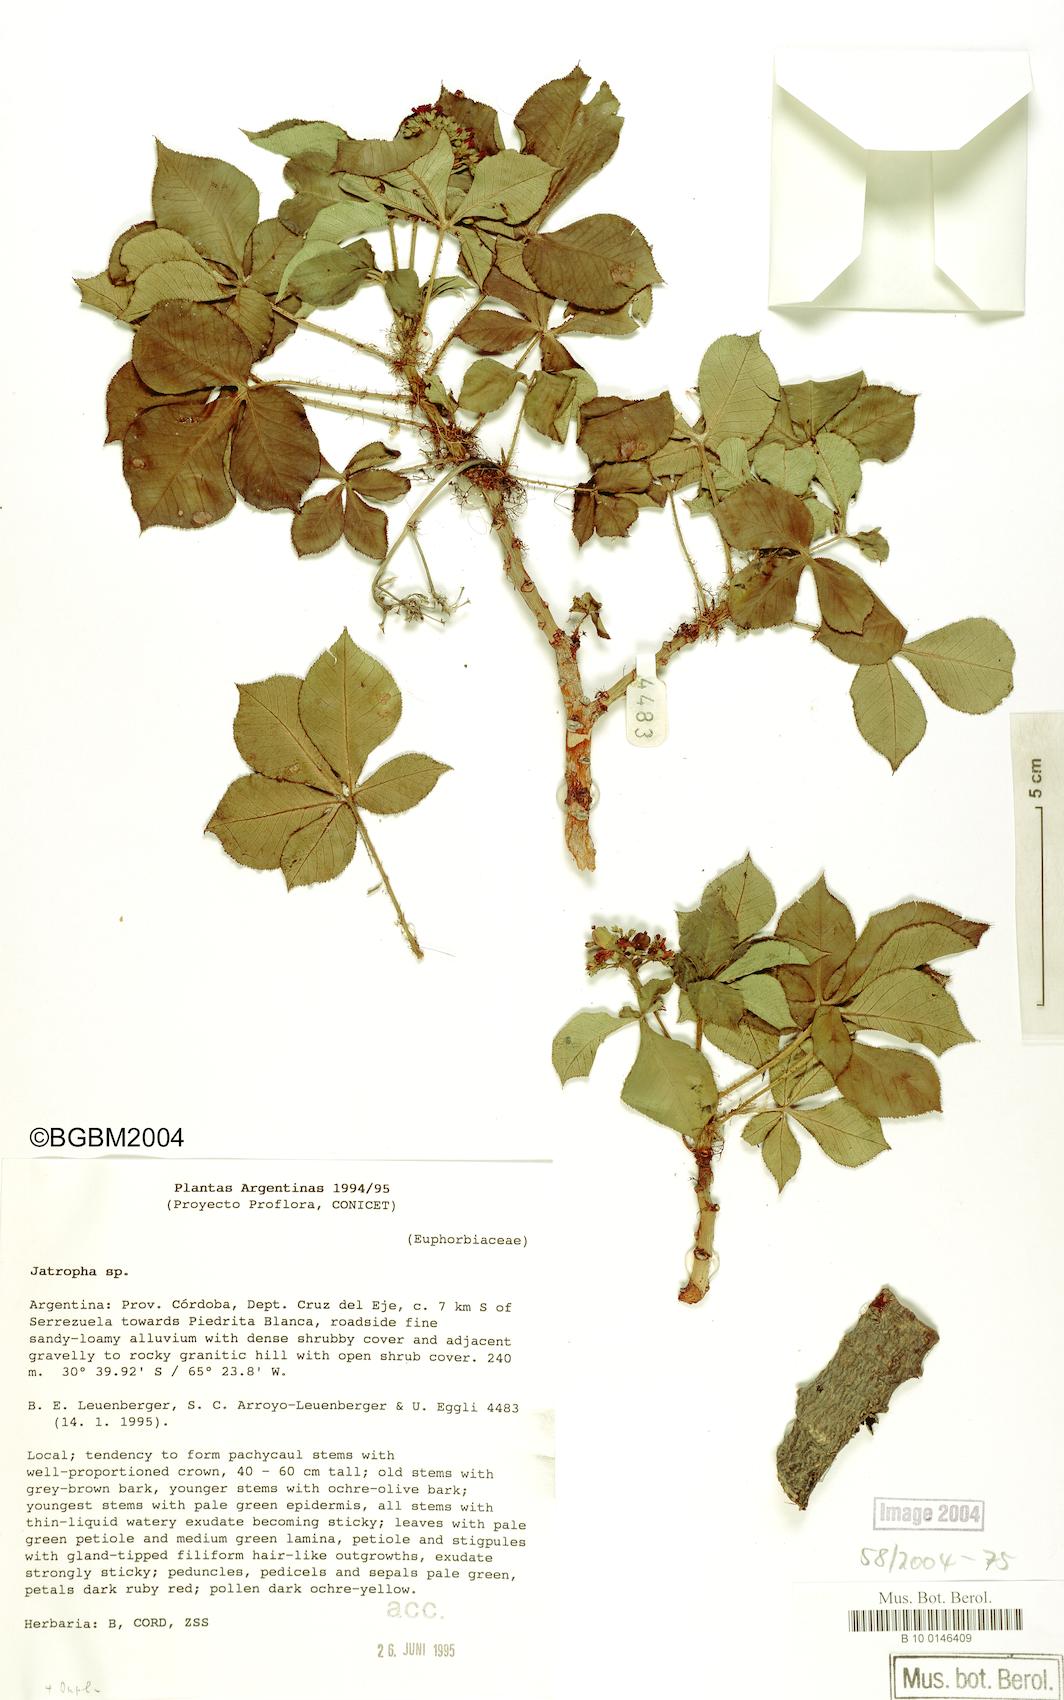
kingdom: Plantae
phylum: Tracheophyta
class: Magnoliopsida
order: Malpighiales
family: Euphorbiaceae
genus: Jatropha
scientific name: Jatropha excisa
